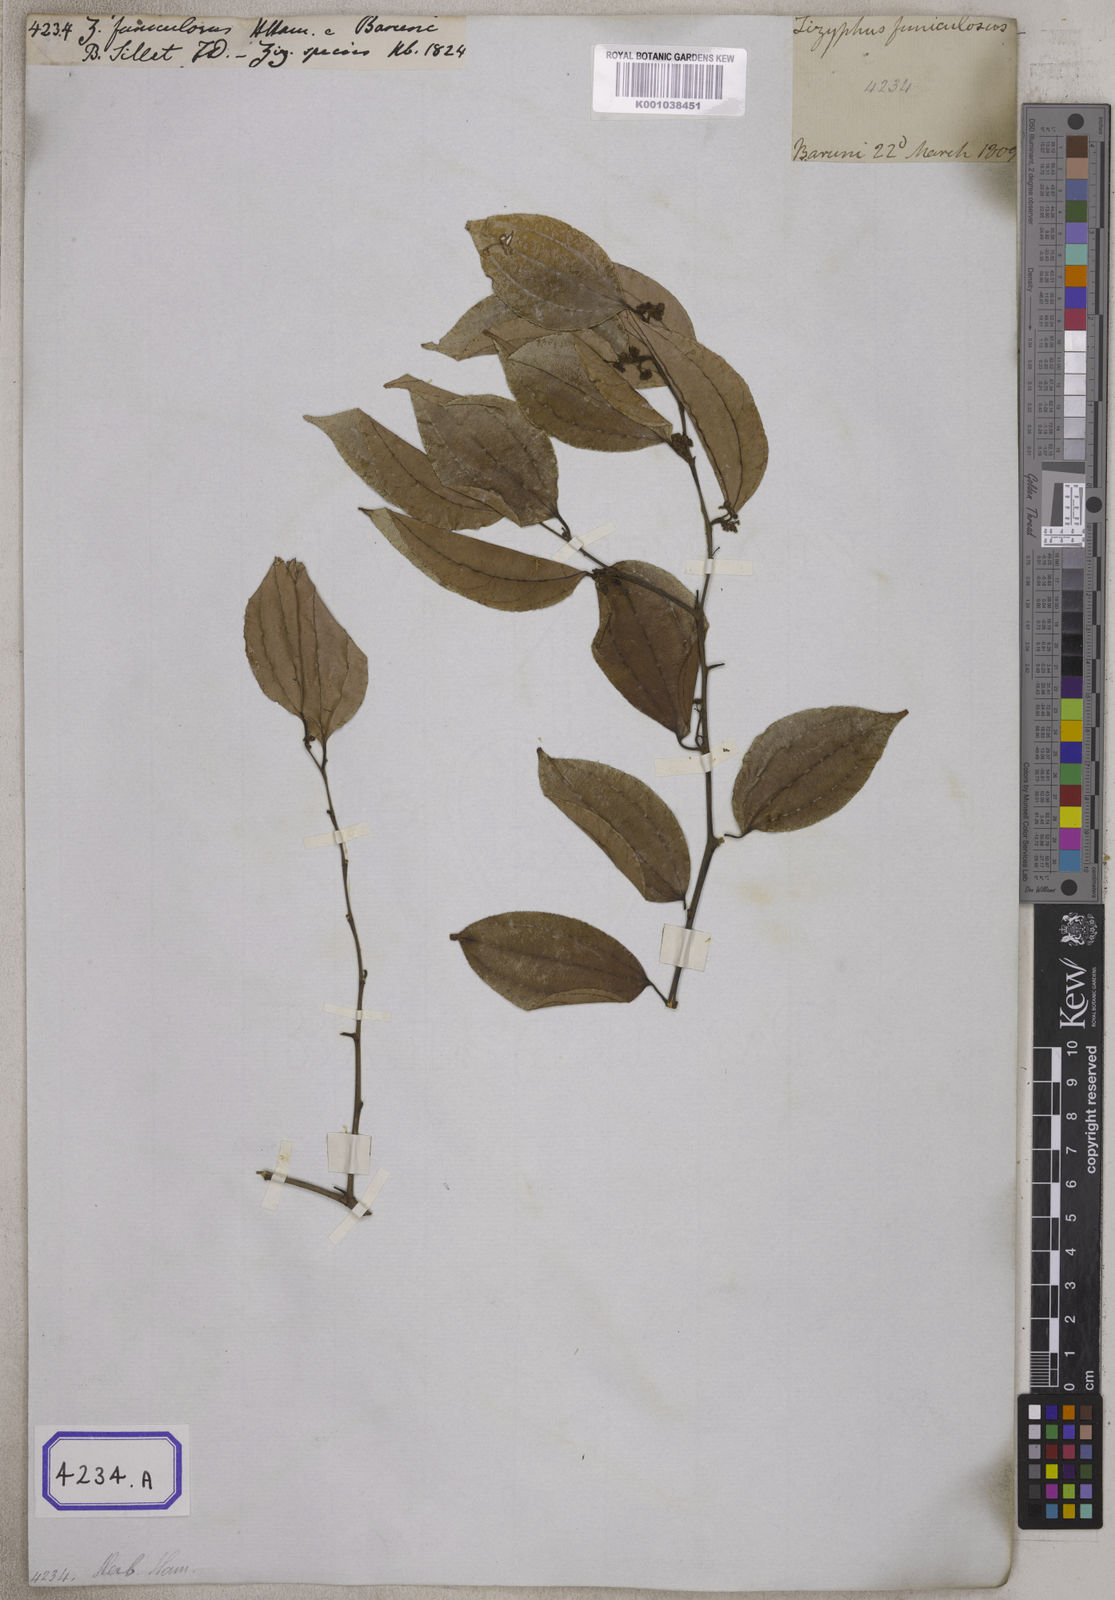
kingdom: Plantae
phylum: Tracheophyta
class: Magnoliopsida
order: Rosales
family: Rhamnaceae
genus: Ziziphus
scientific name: Ziziphus
